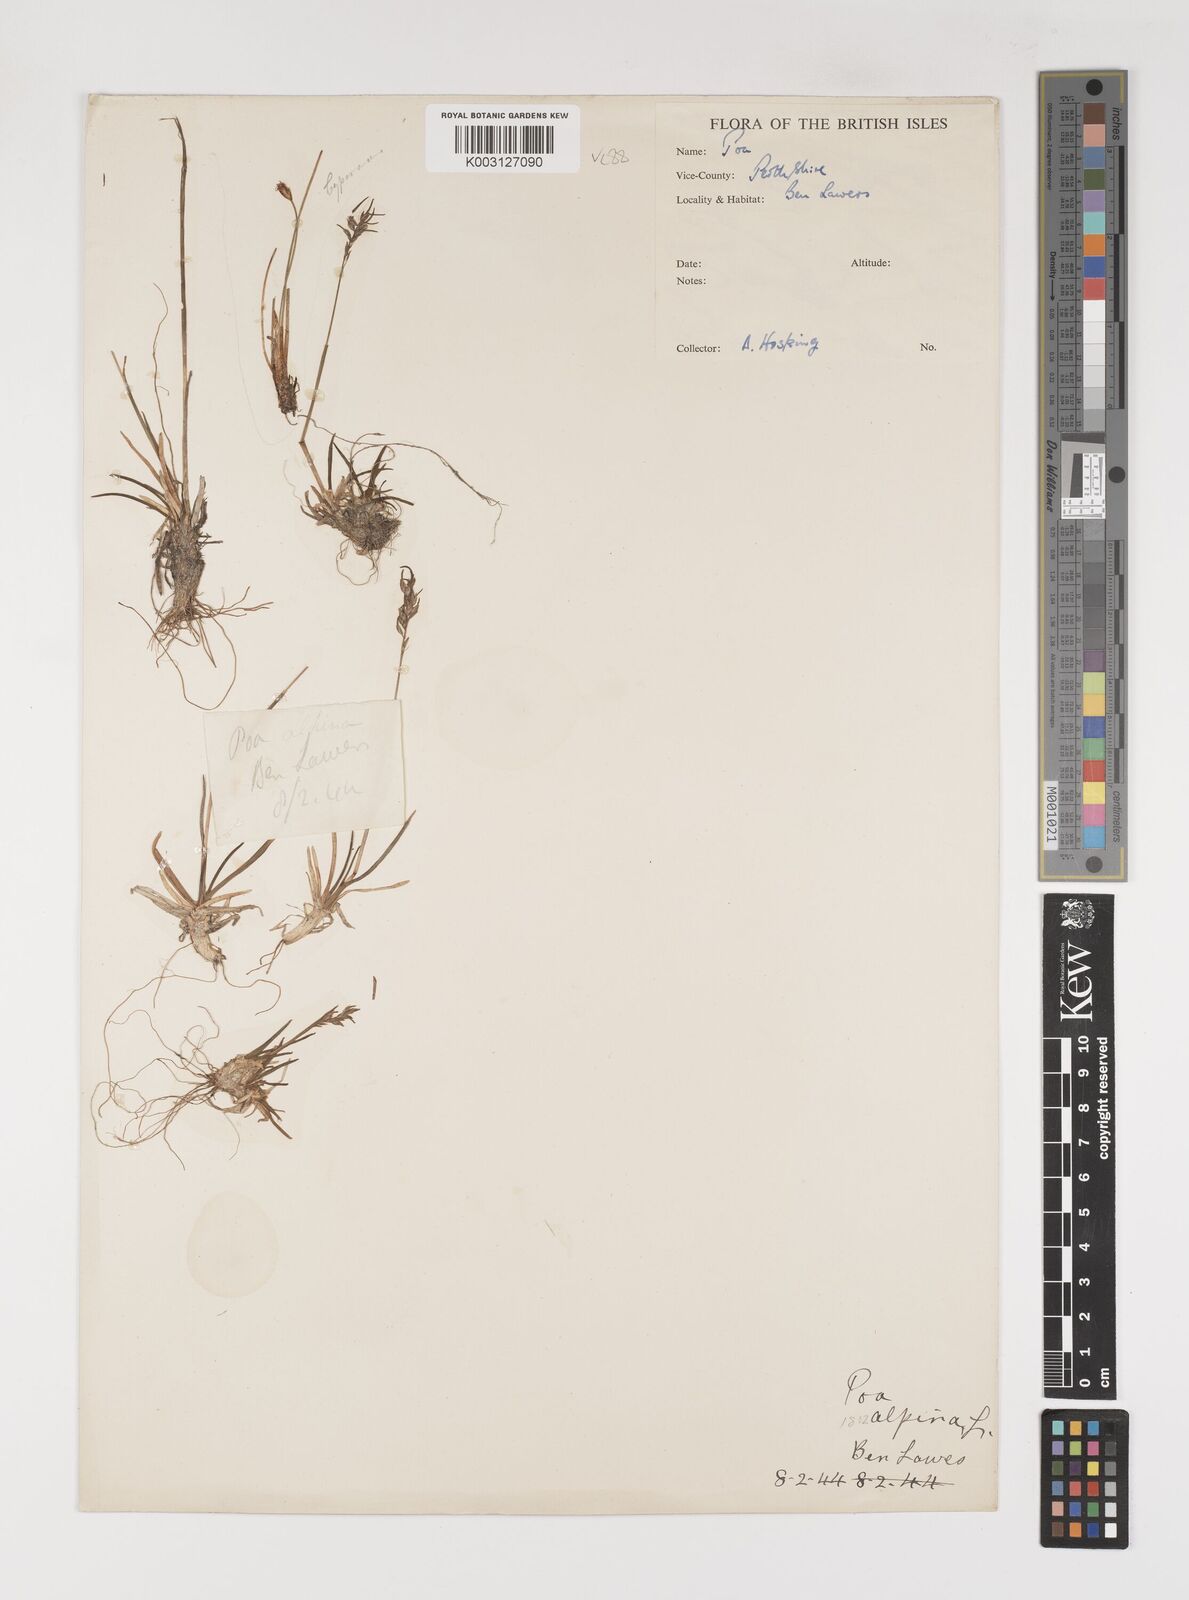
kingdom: Plantae
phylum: Tracheophyta
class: Liliopsida
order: Poales
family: Poaceae
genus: Poa
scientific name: Poa alpina
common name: Alpine bluegrass
